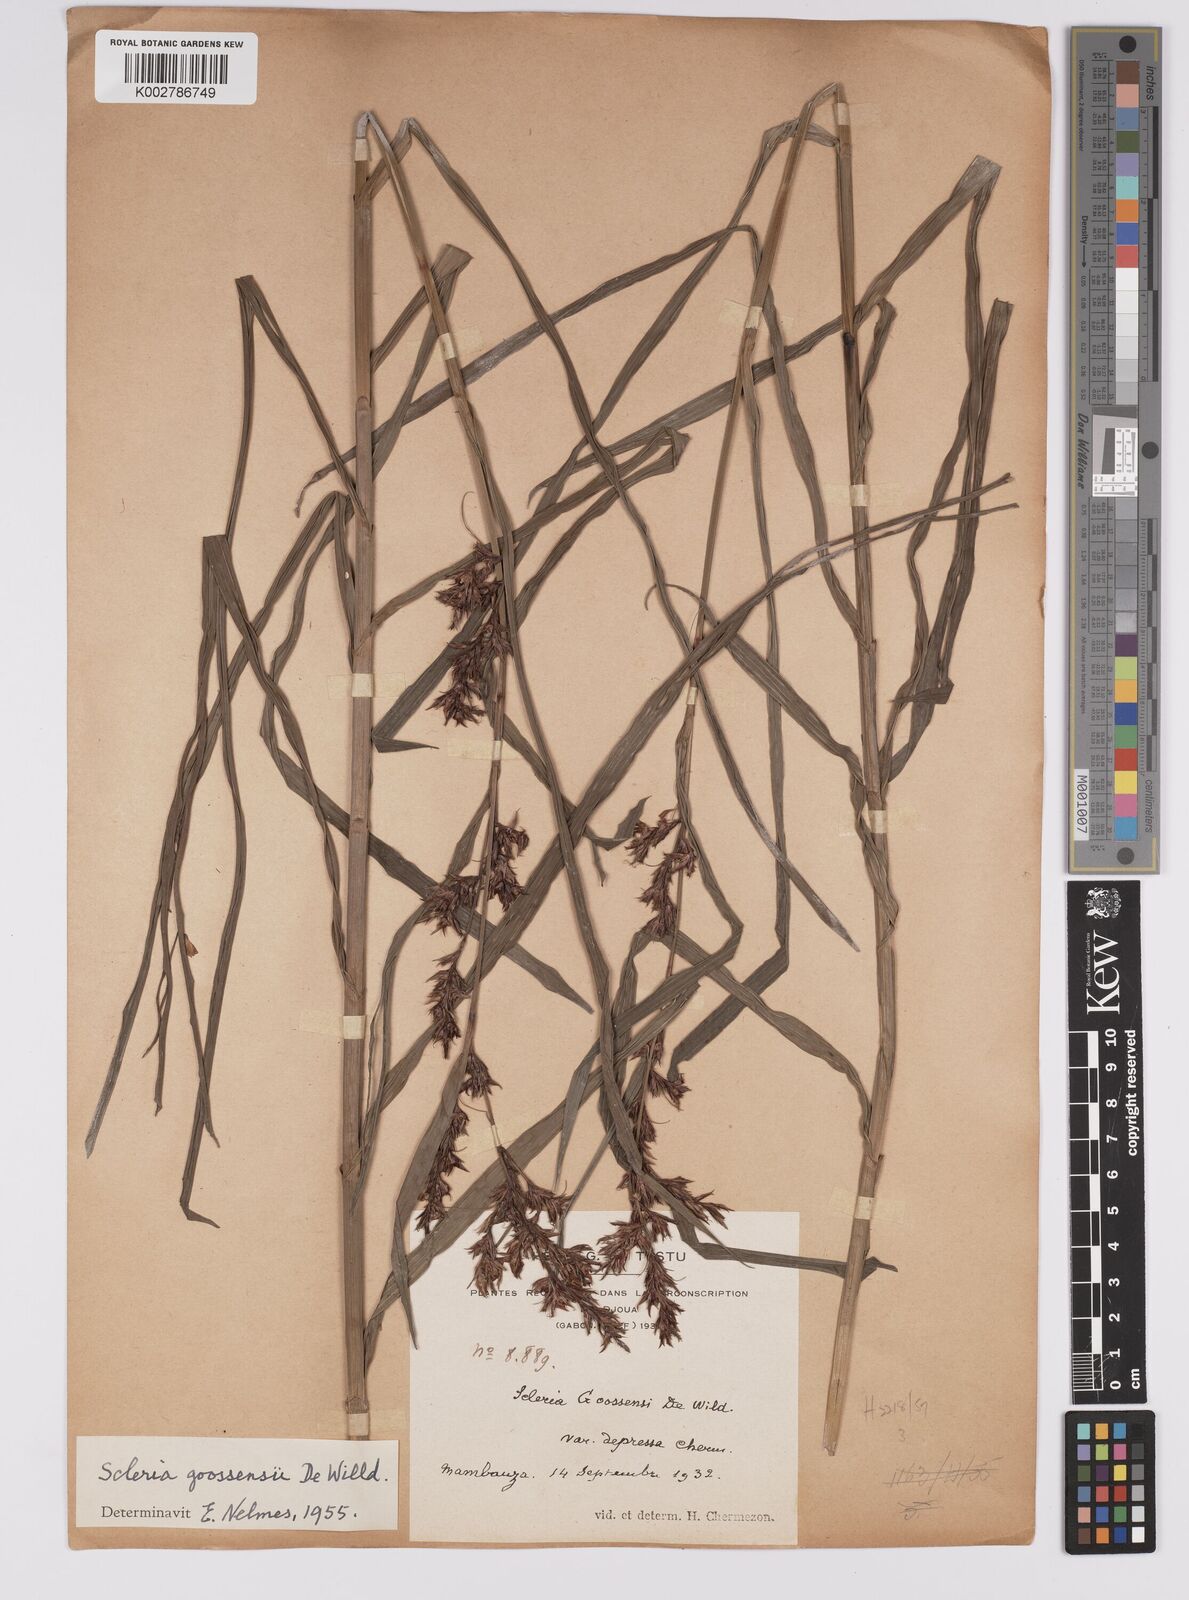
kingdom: Plantae
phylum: Tracheophyta
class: Liliopsida
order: Poales
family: Cyperaceae
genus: Scleria
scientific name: Scleria goossensii
